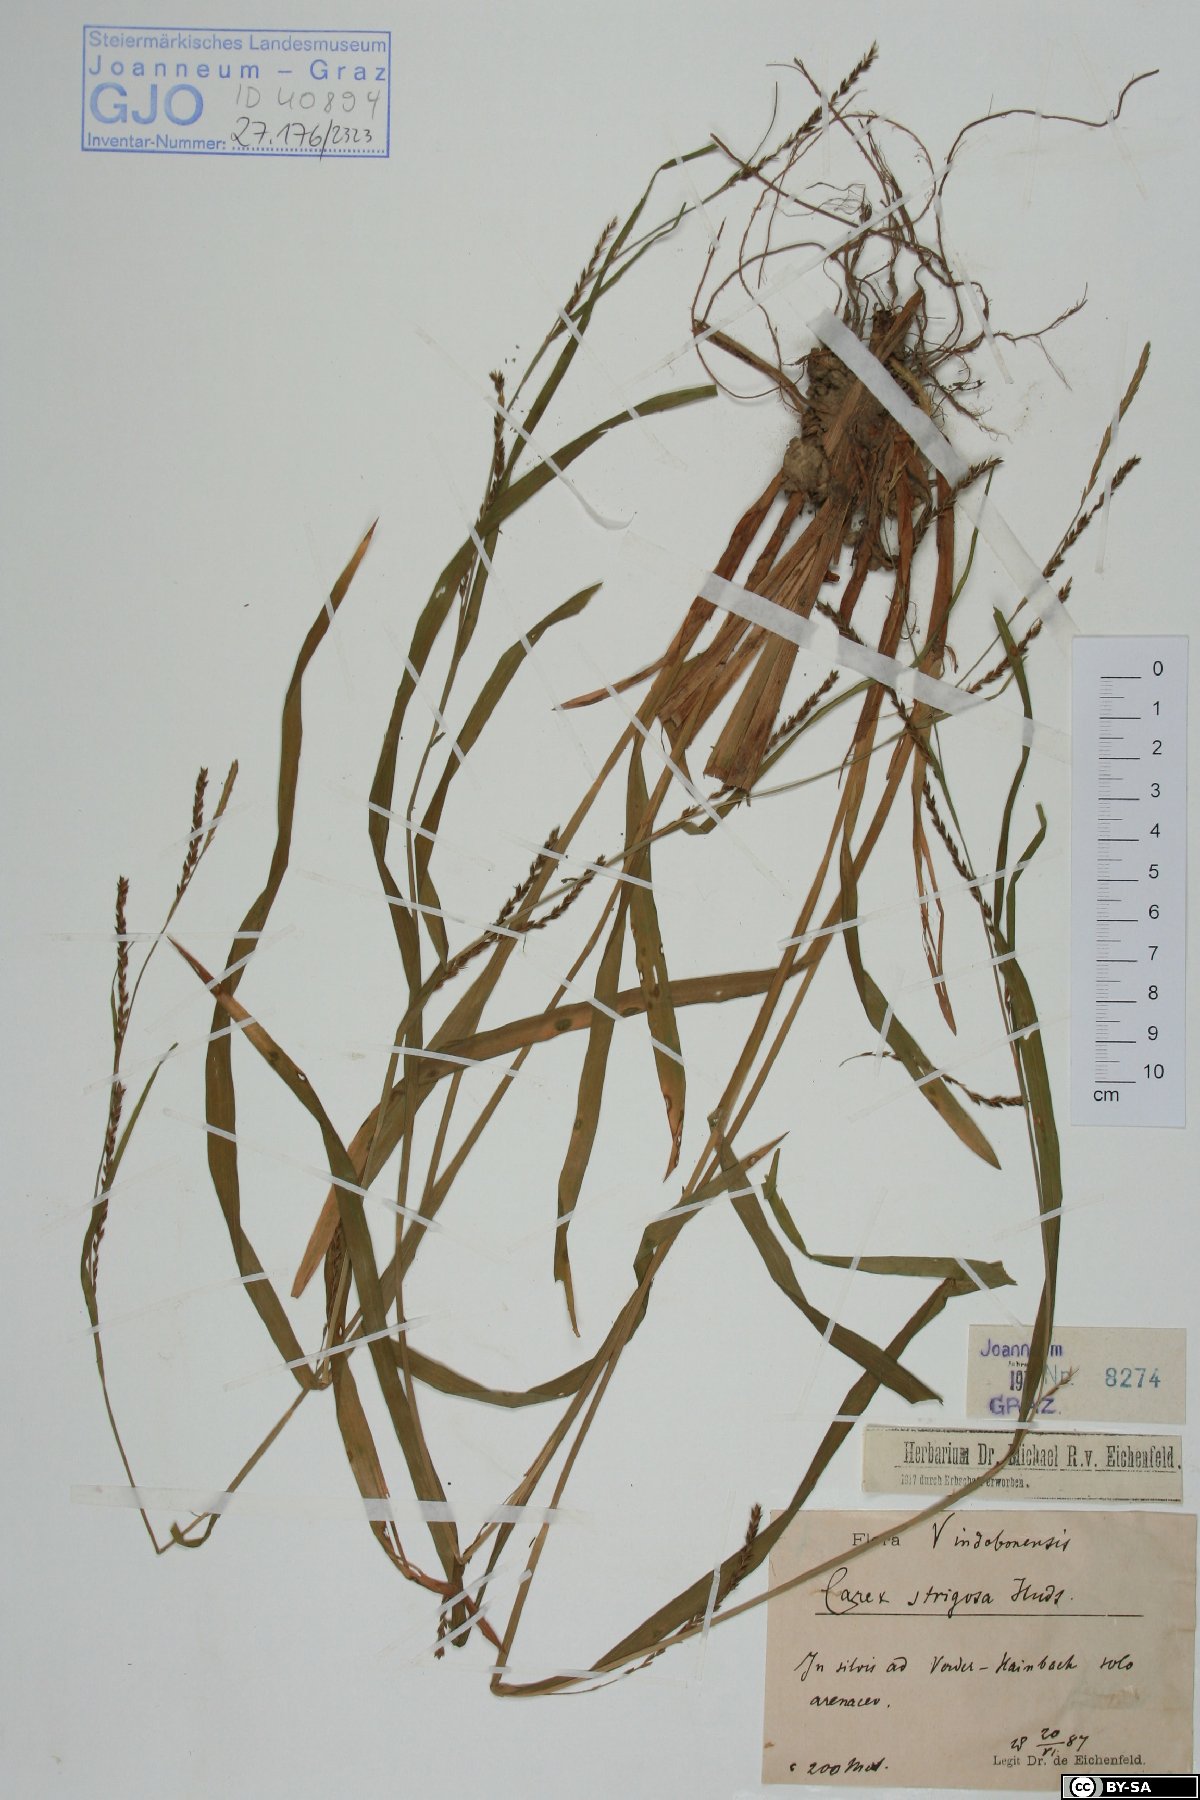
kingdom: Plantae
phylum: Tracheophyta
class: Liliopsida
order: Poales
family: Cyperaceae
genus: Carex
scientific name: Carex strigosa
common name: Thin-spiked wood-sedge
